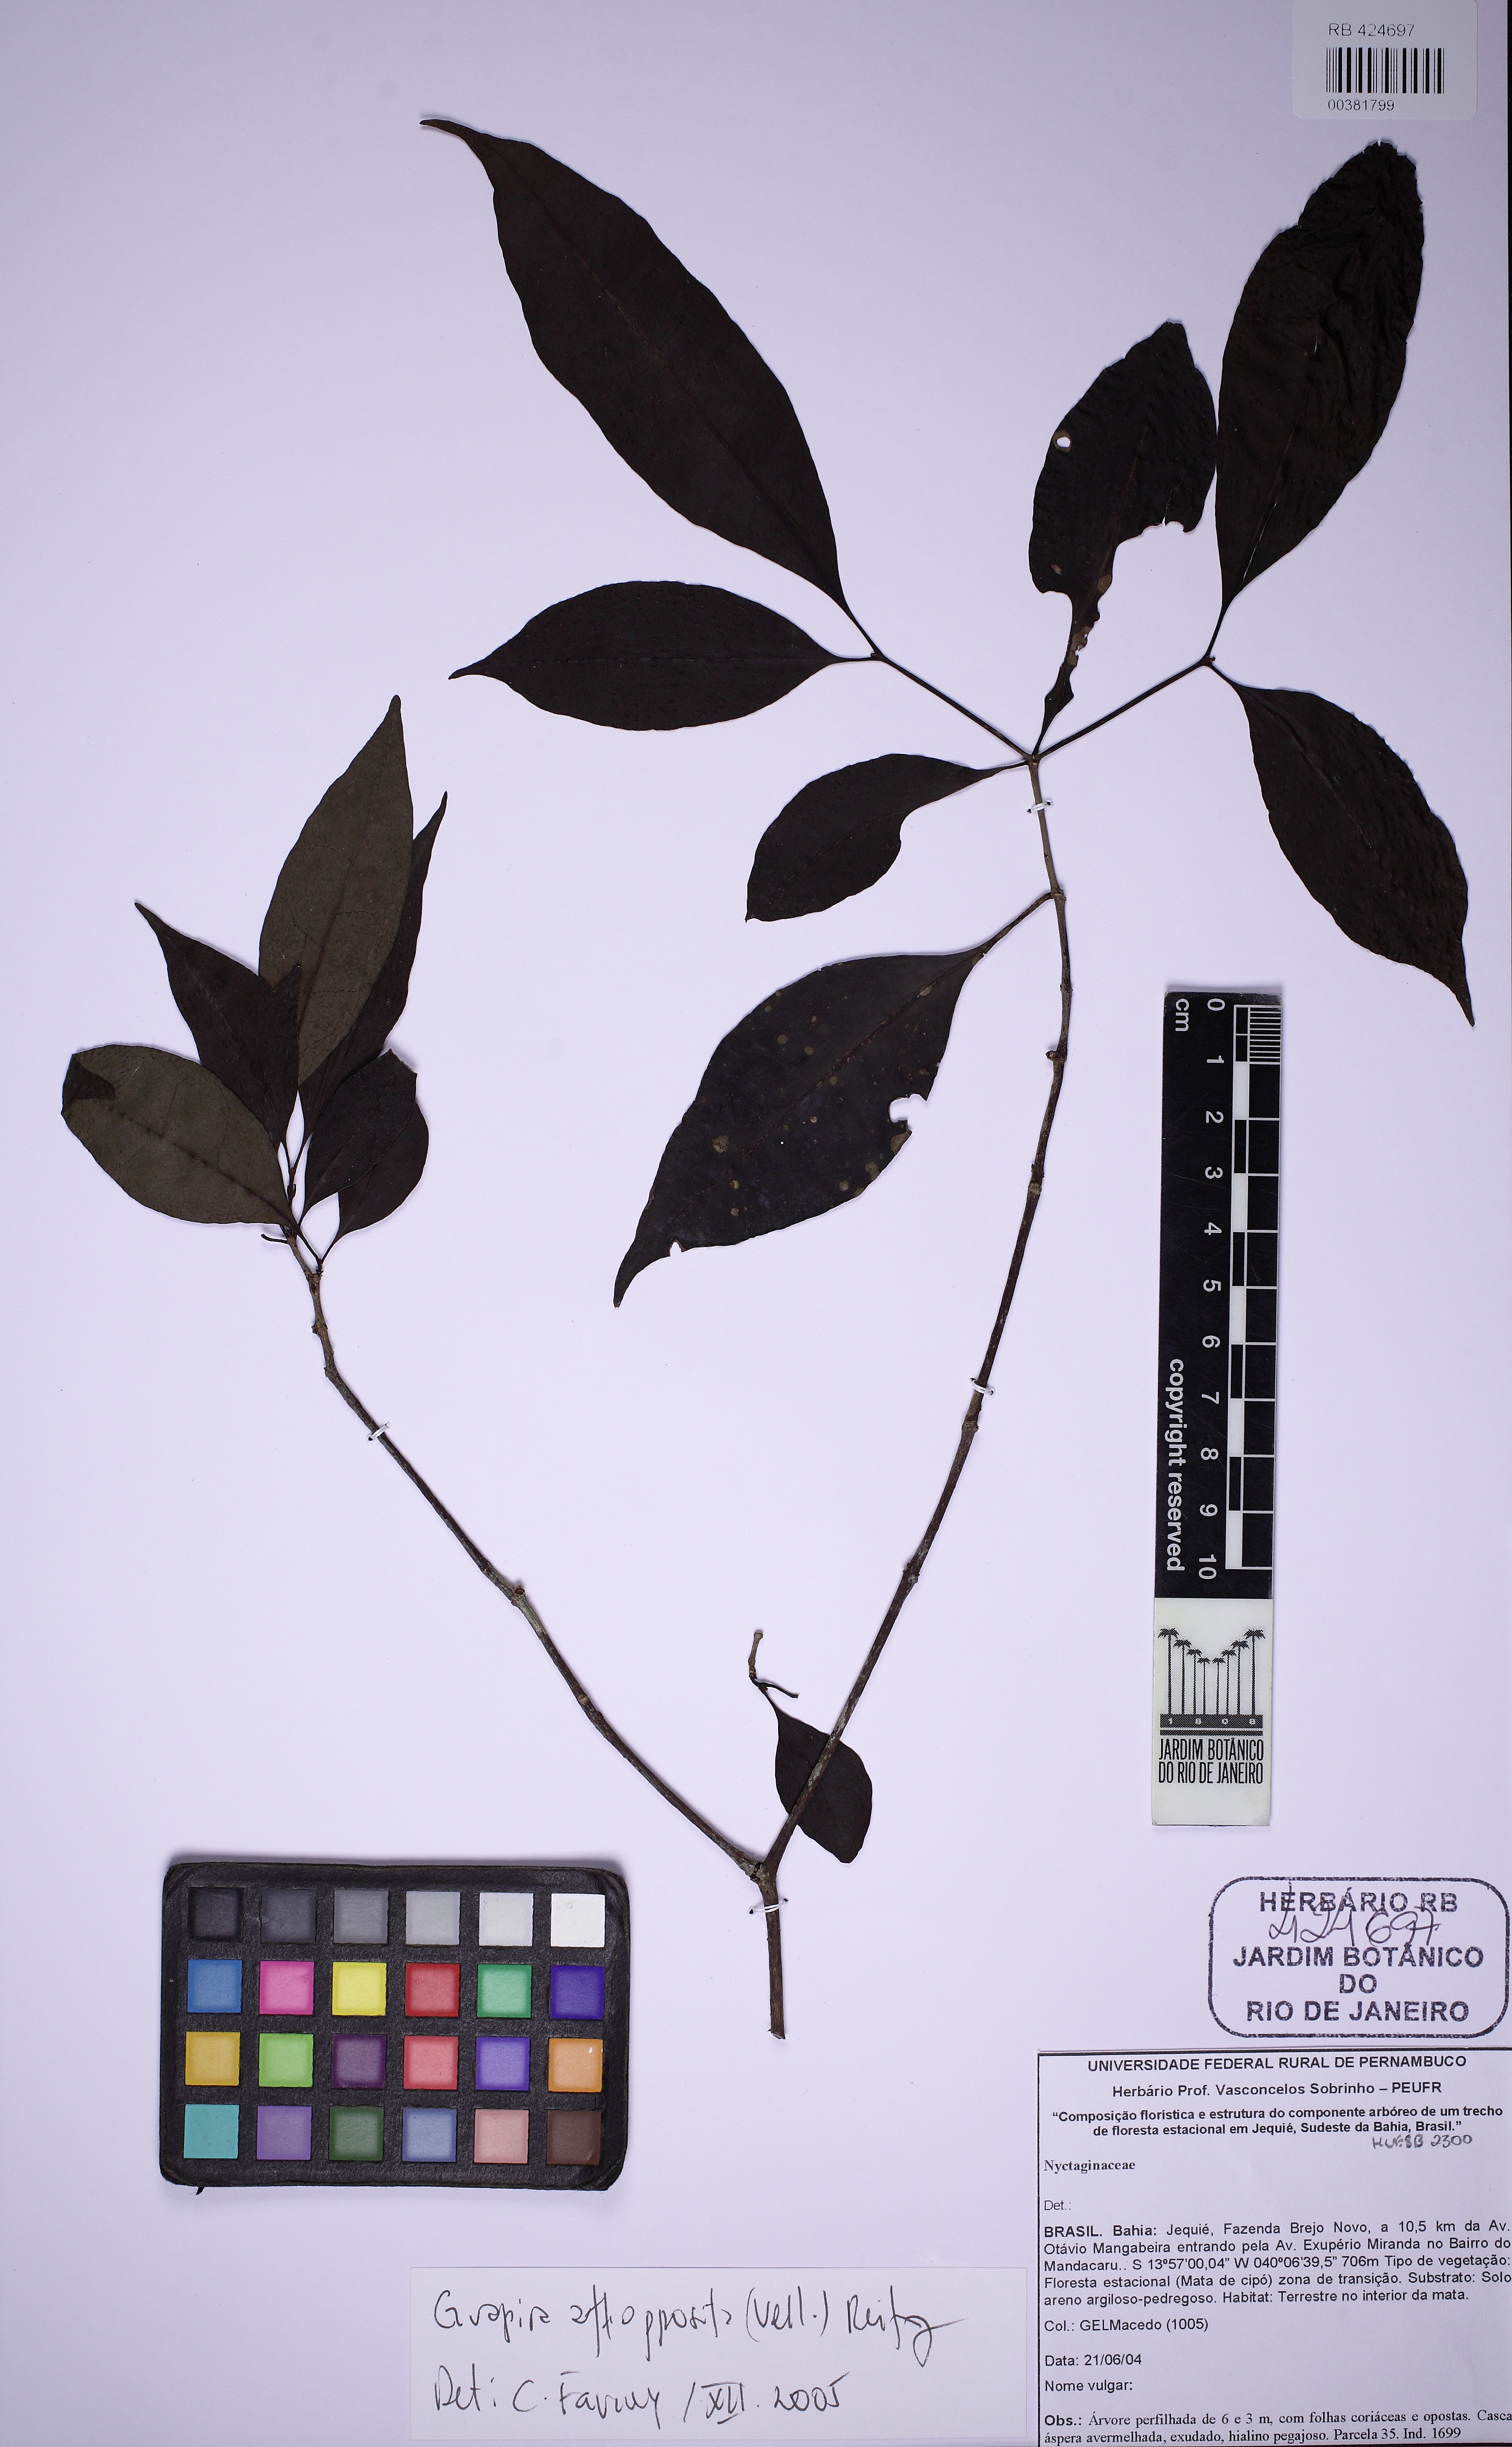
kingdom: Plantae
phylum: Tracheophyta
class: Magnoliopsida
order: Caryophyllales
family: Nyctaginaceae
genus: Guapira
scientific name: Guapira opposita
